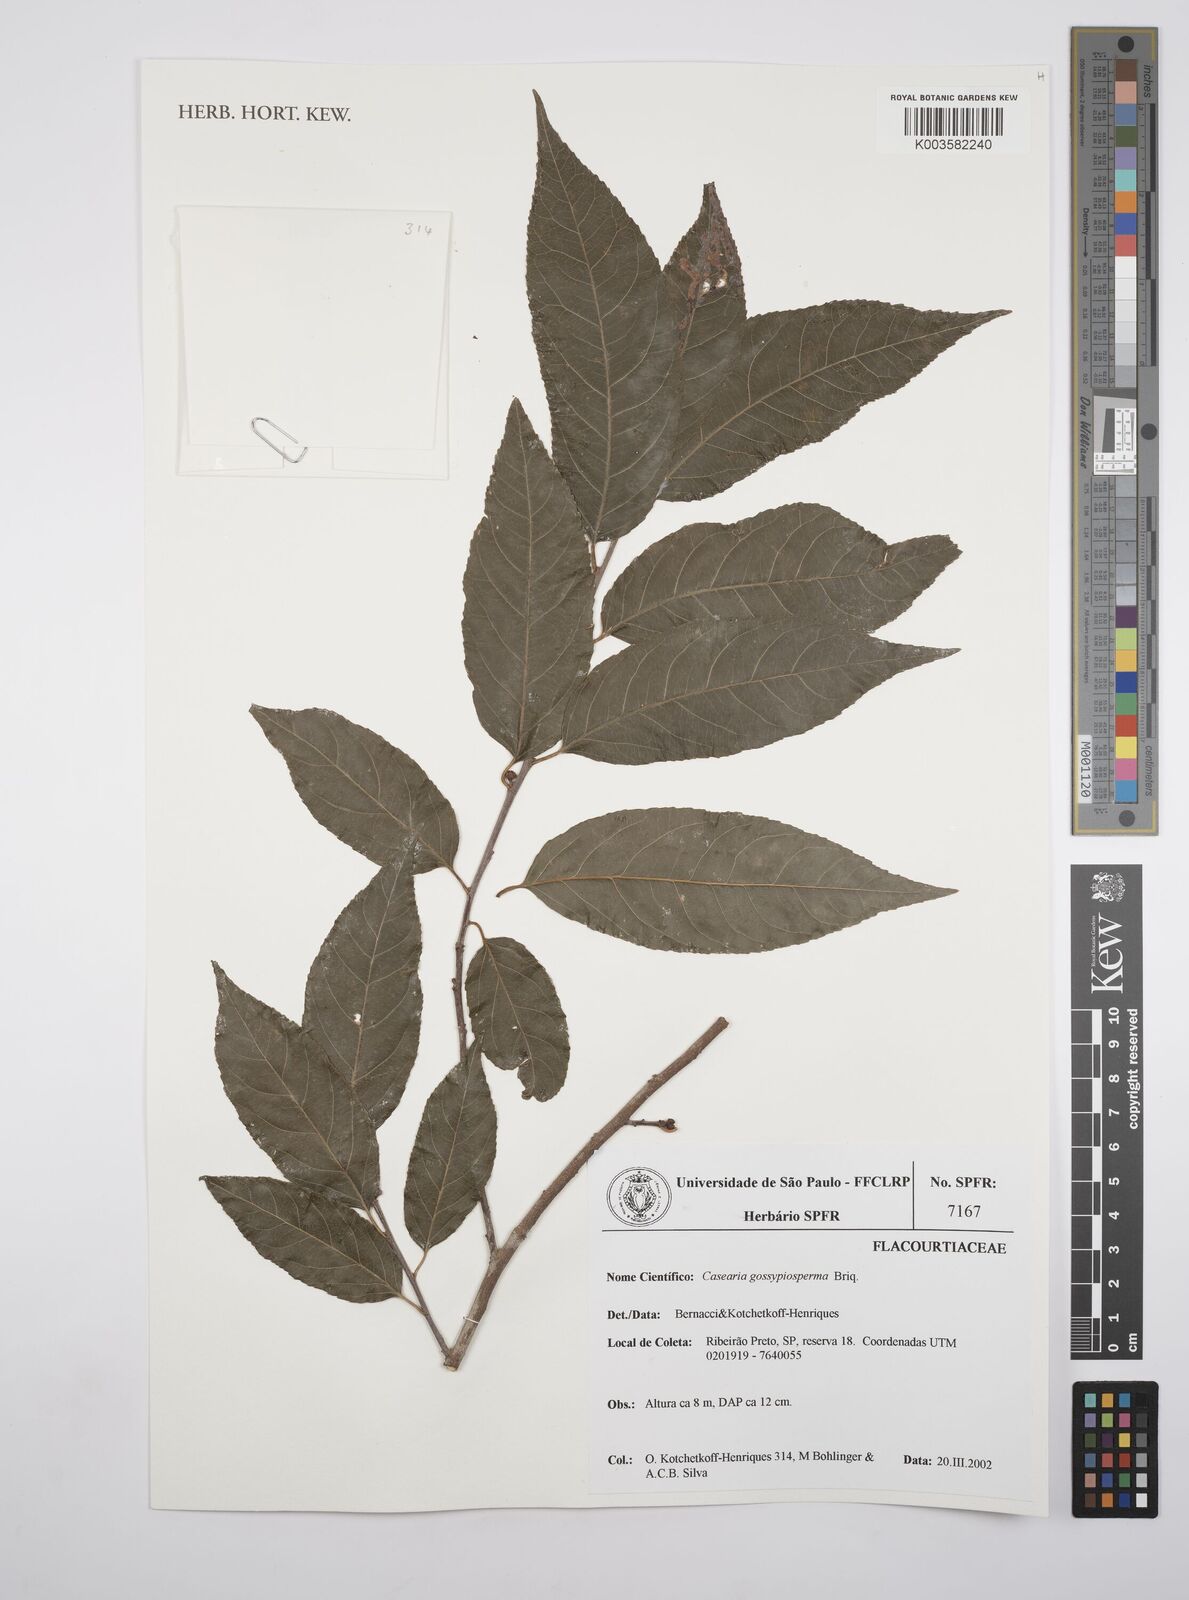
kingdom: Plantae
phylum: Tracheophyta
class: Magnoliopsida
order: Malpighiales
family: Salicaceae
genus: Casearia
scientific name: Casearia gossypiosperma
